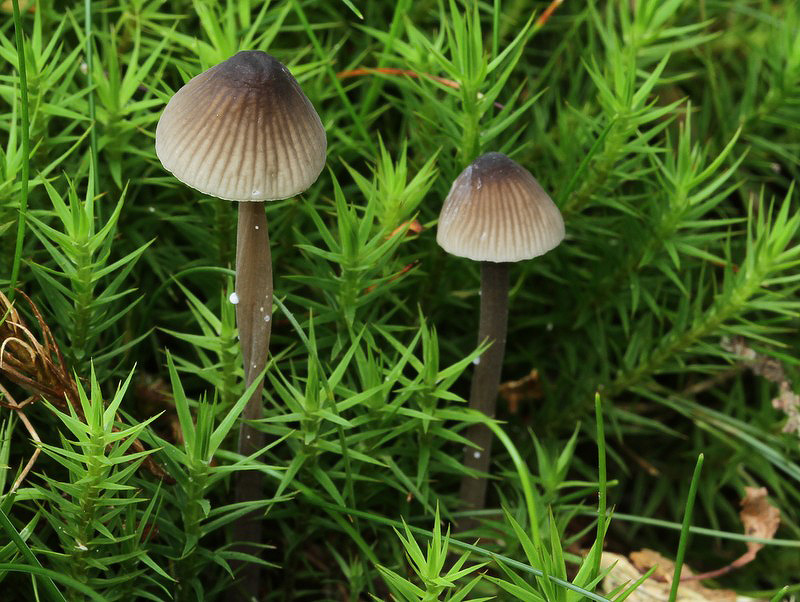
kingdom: Fungi
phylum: Basidiomycota
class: Agaricomycetes
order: Agaricales
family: Mycenaceae
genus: Mycena
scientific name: Mycena galopus
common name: hvidmælket huesvamp
